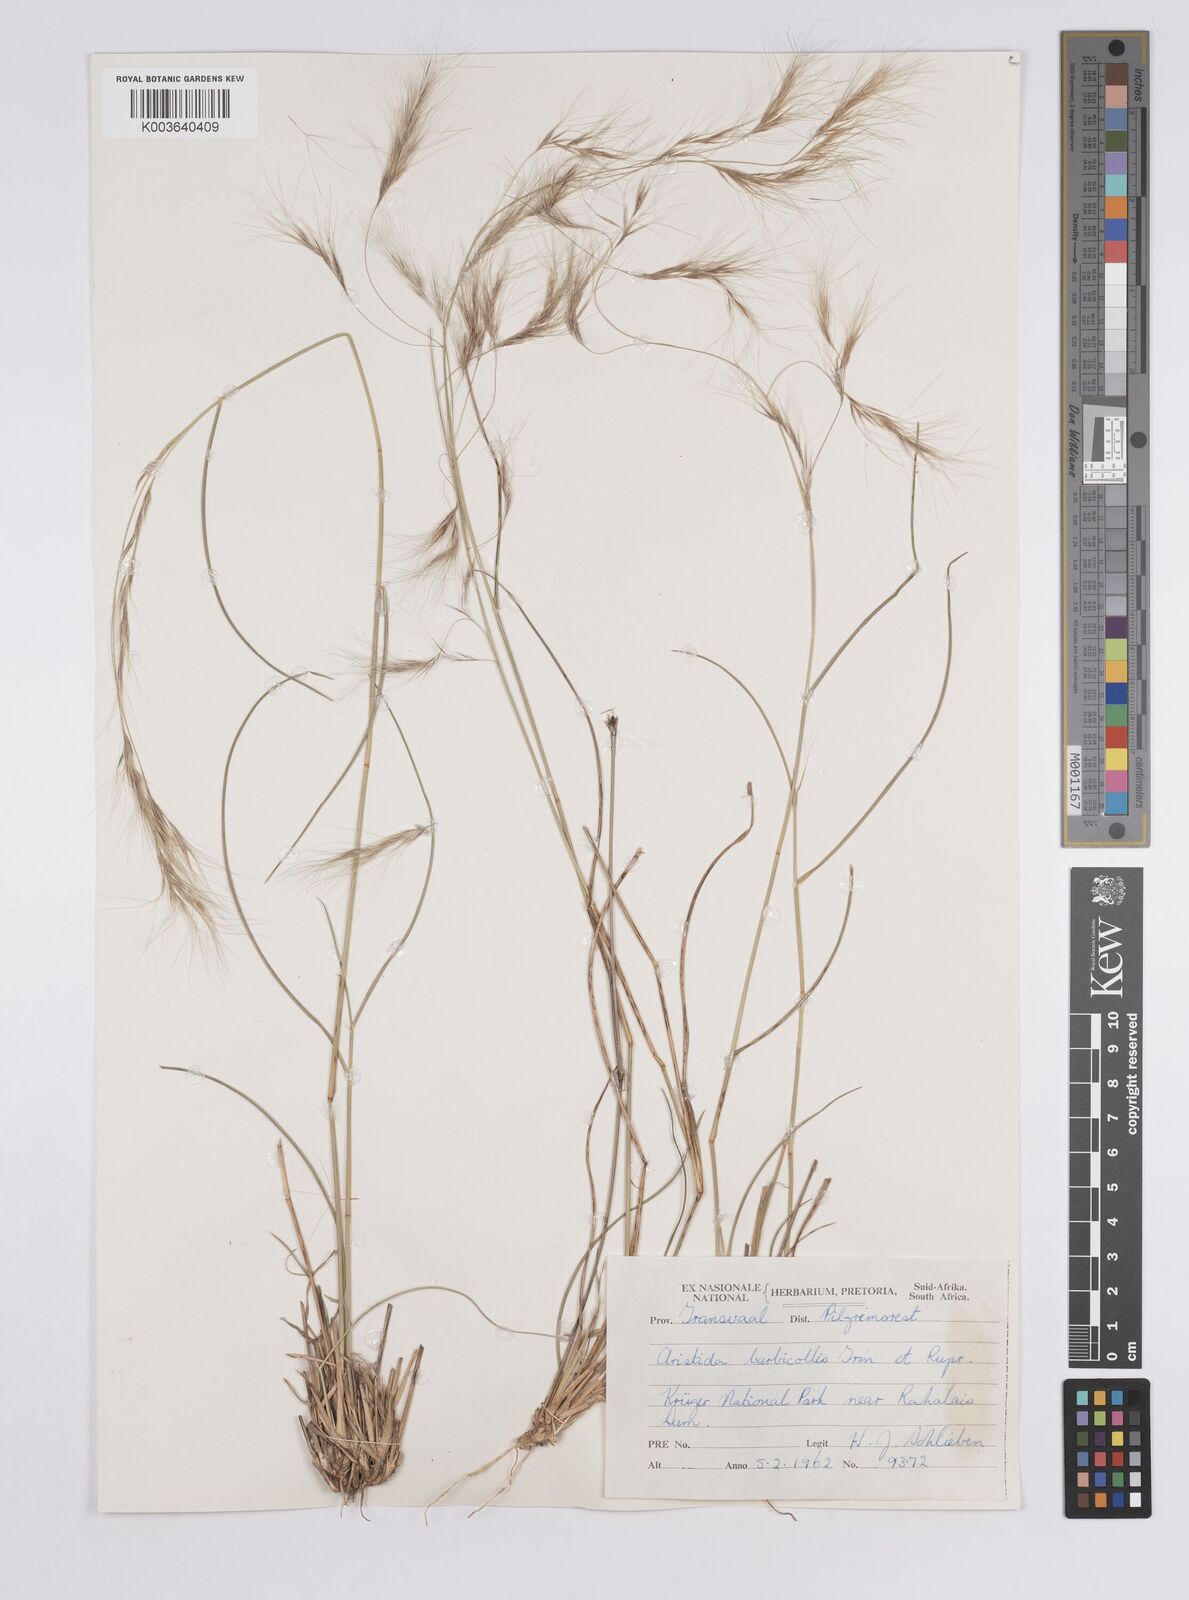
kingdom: Plantae
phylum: Tracheophyta
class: Liliopsida
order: Poales
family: Poaceae
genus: Aristida
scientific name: Aristida barbicollis
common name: Spreading prickle grass
